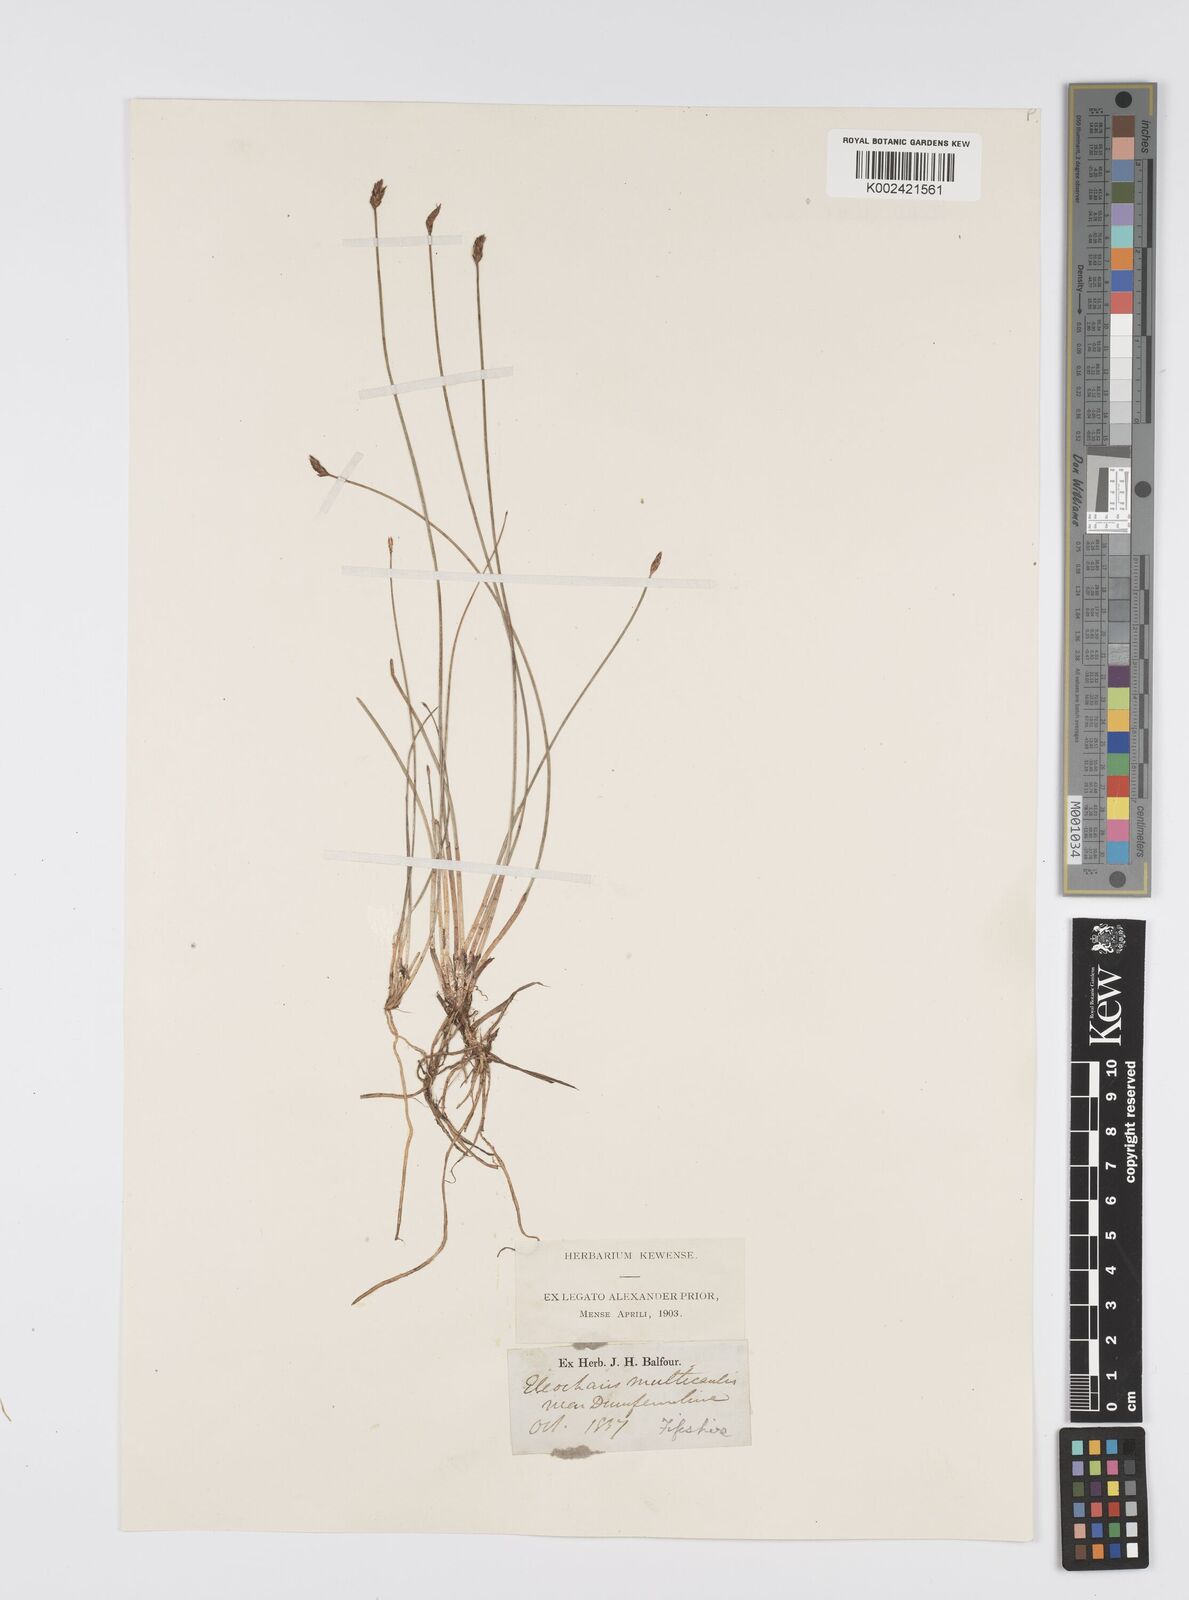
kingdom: Plantae
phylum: Tracheophyta
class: Liliopsida
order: Poales
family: Cyperaceae
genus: Eleocharis
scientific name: Eleocharis multicaulis
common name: Many-stalked spike-rush
